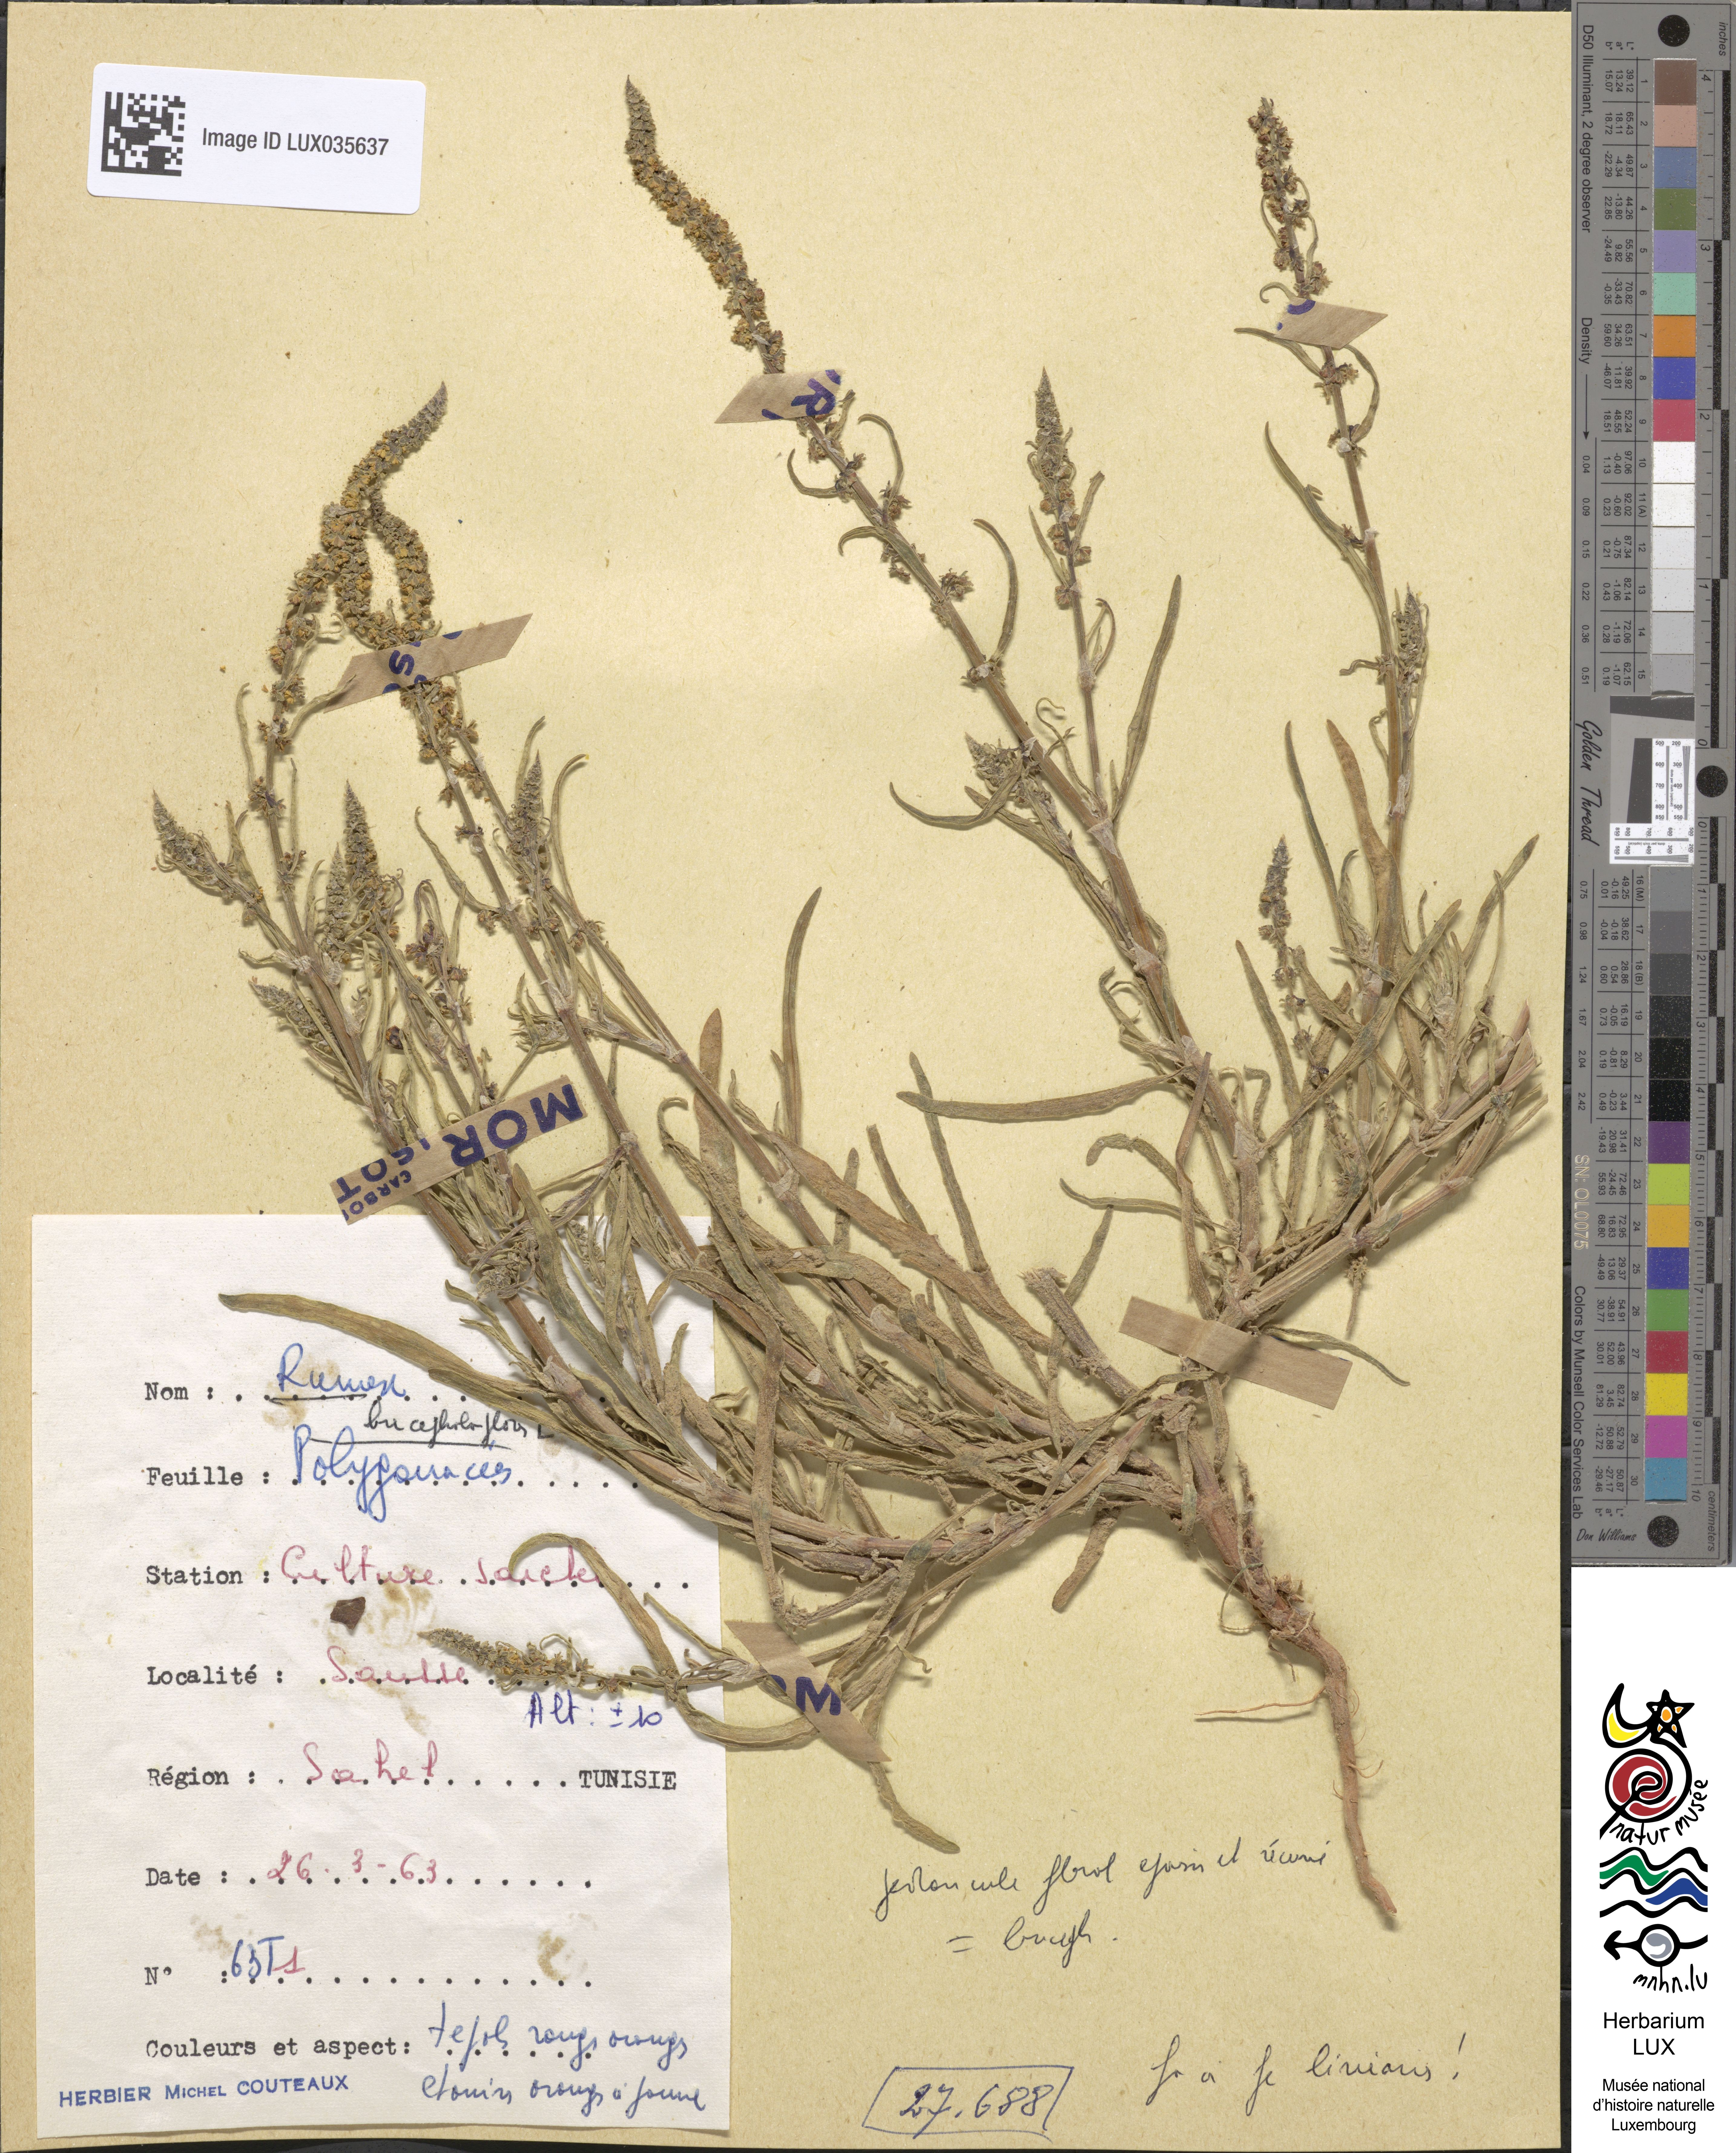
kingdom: Plantae
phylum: Tracheophyta
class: Magnoliopsida
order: Caryophyllales
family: Polygonaceae
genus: Rumex
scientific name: Rumex bucephalophorus
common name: Red dock
